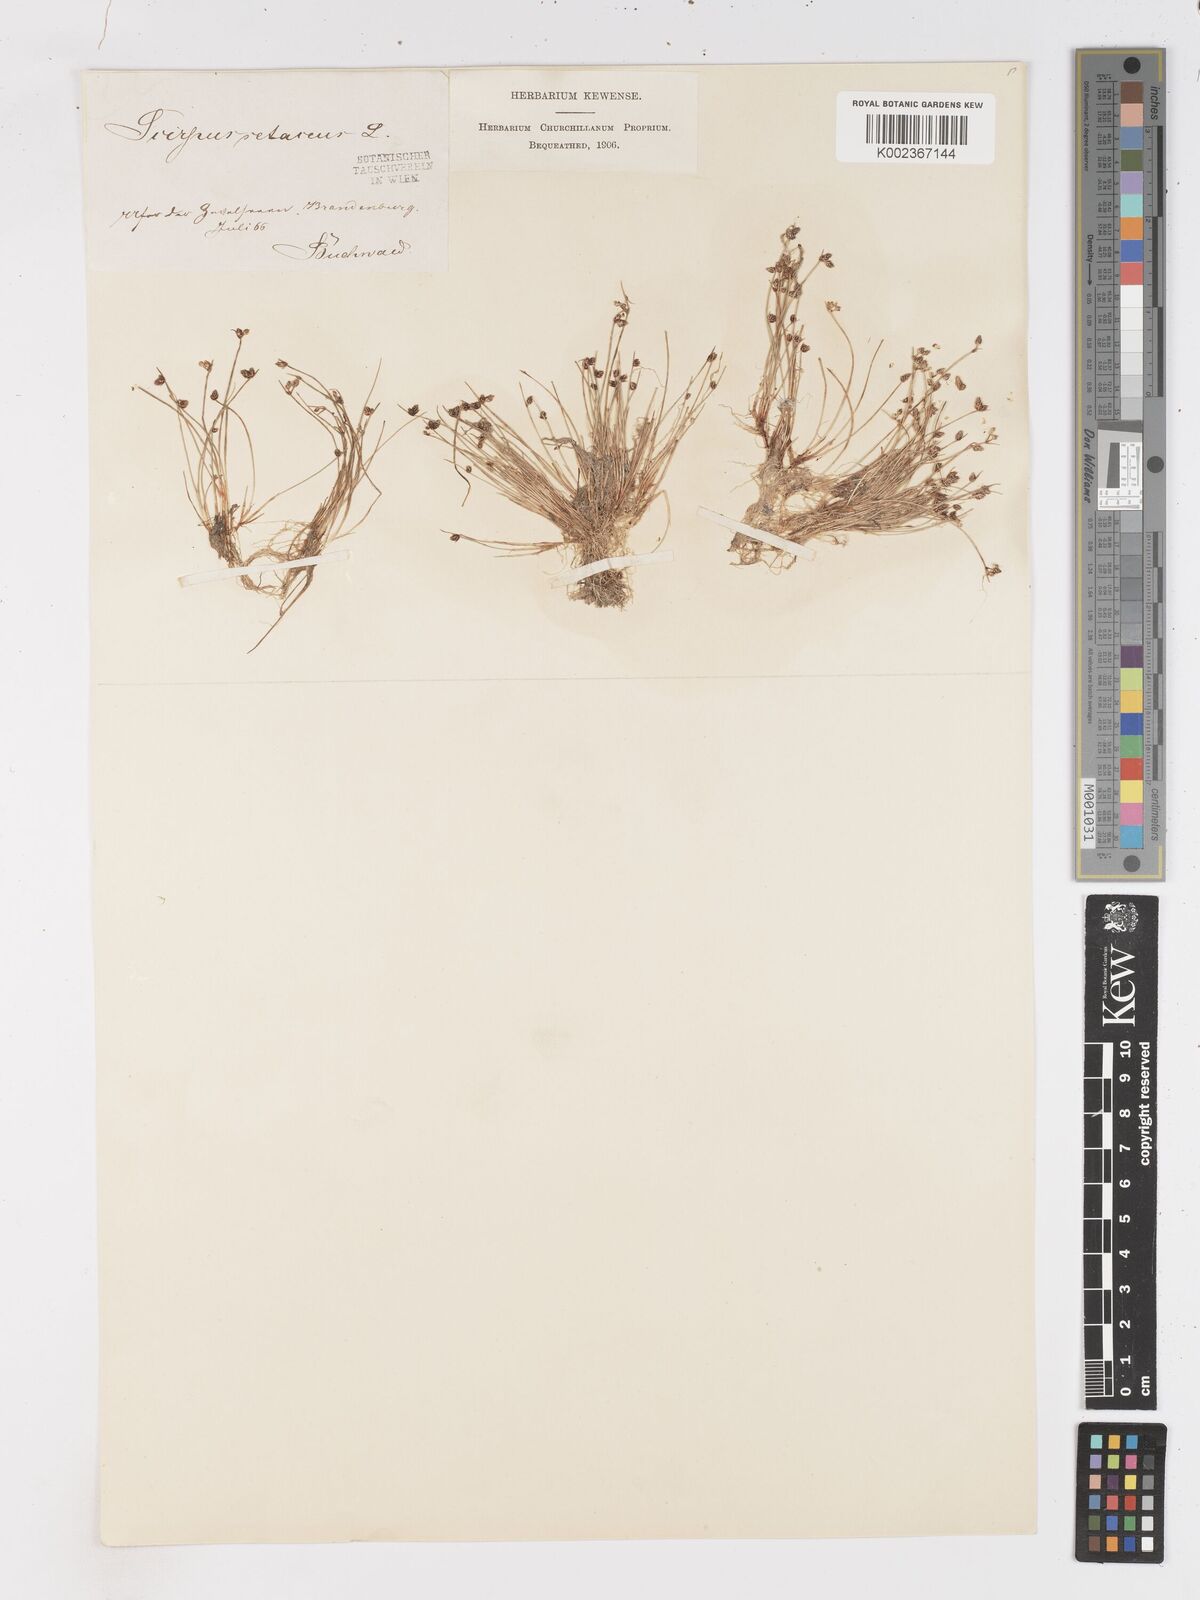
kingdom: Plantae
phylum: Tracheophyta
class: Liliopsida
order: Poales
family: Cyperaceae
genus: Isolepis
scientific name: Isolepis setacea
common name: Bristle club-rush
